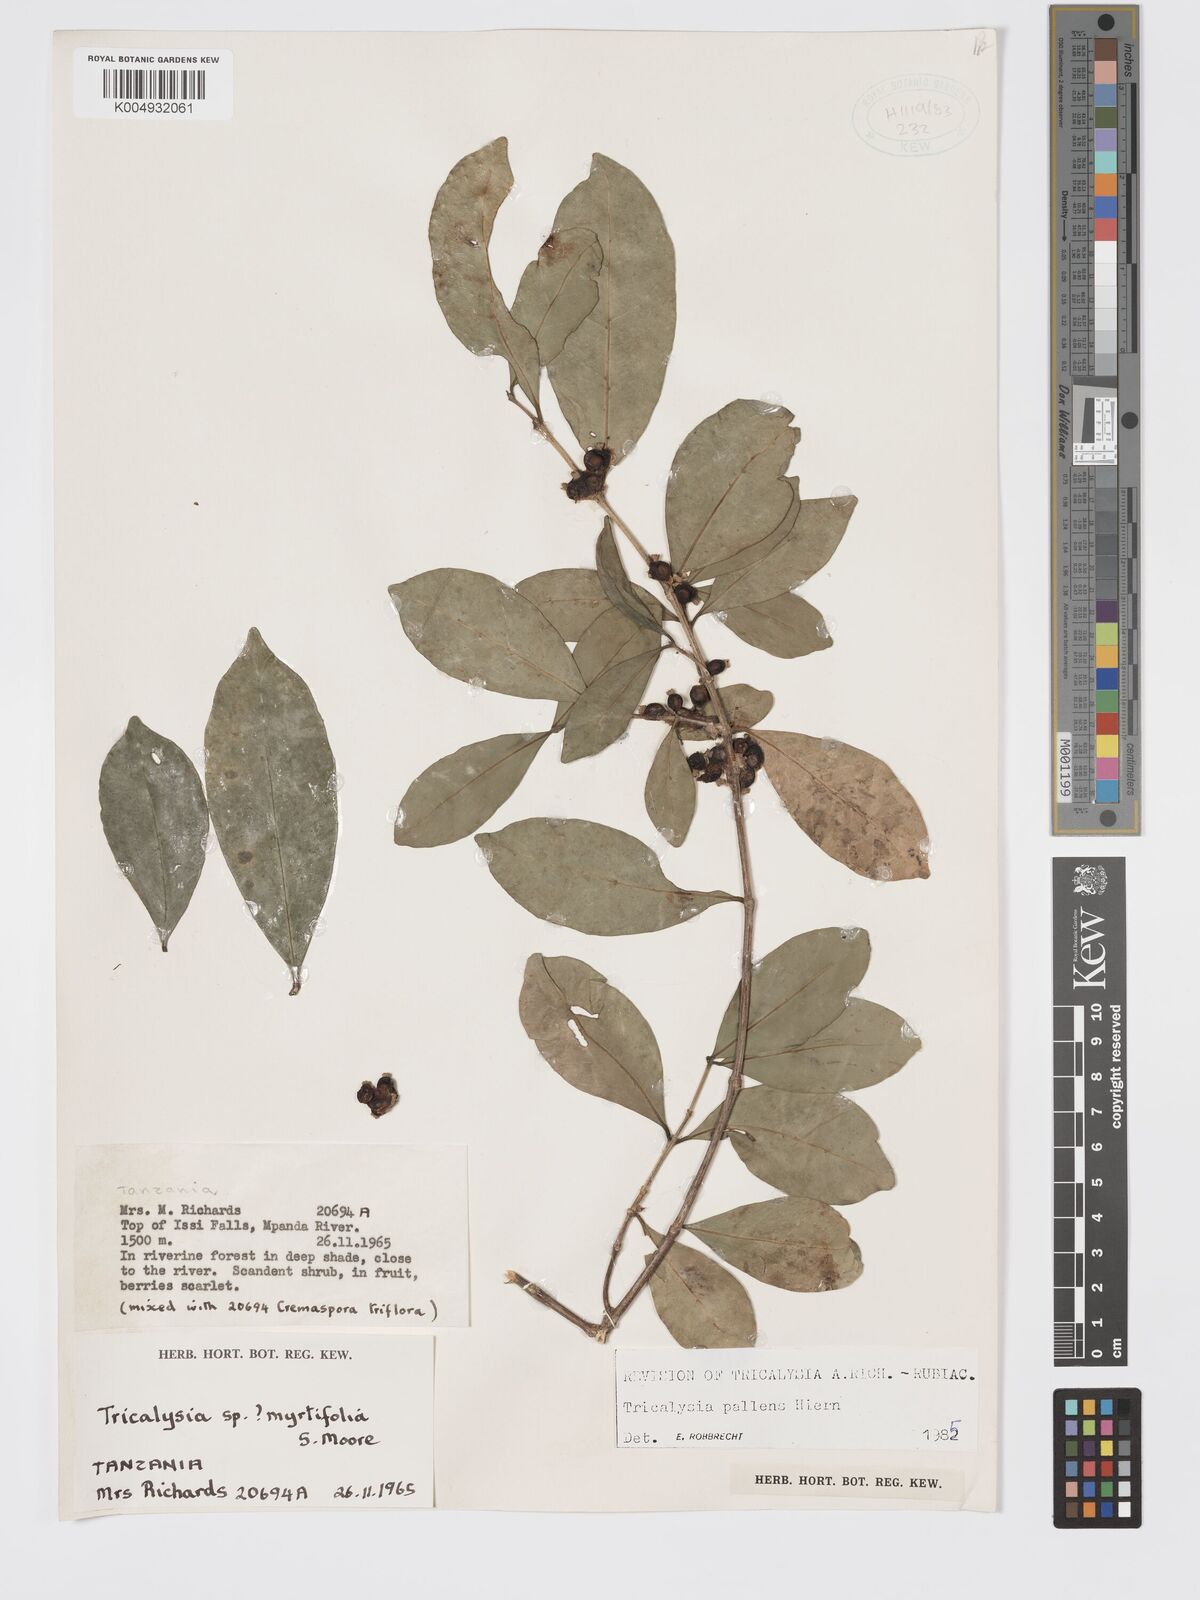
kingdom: Plantae
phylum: Tracheophyta
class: Magnoliopsida
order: Gentianales
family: Rubiaceae
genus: Tricalysia
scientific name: Tricalysia pallens
